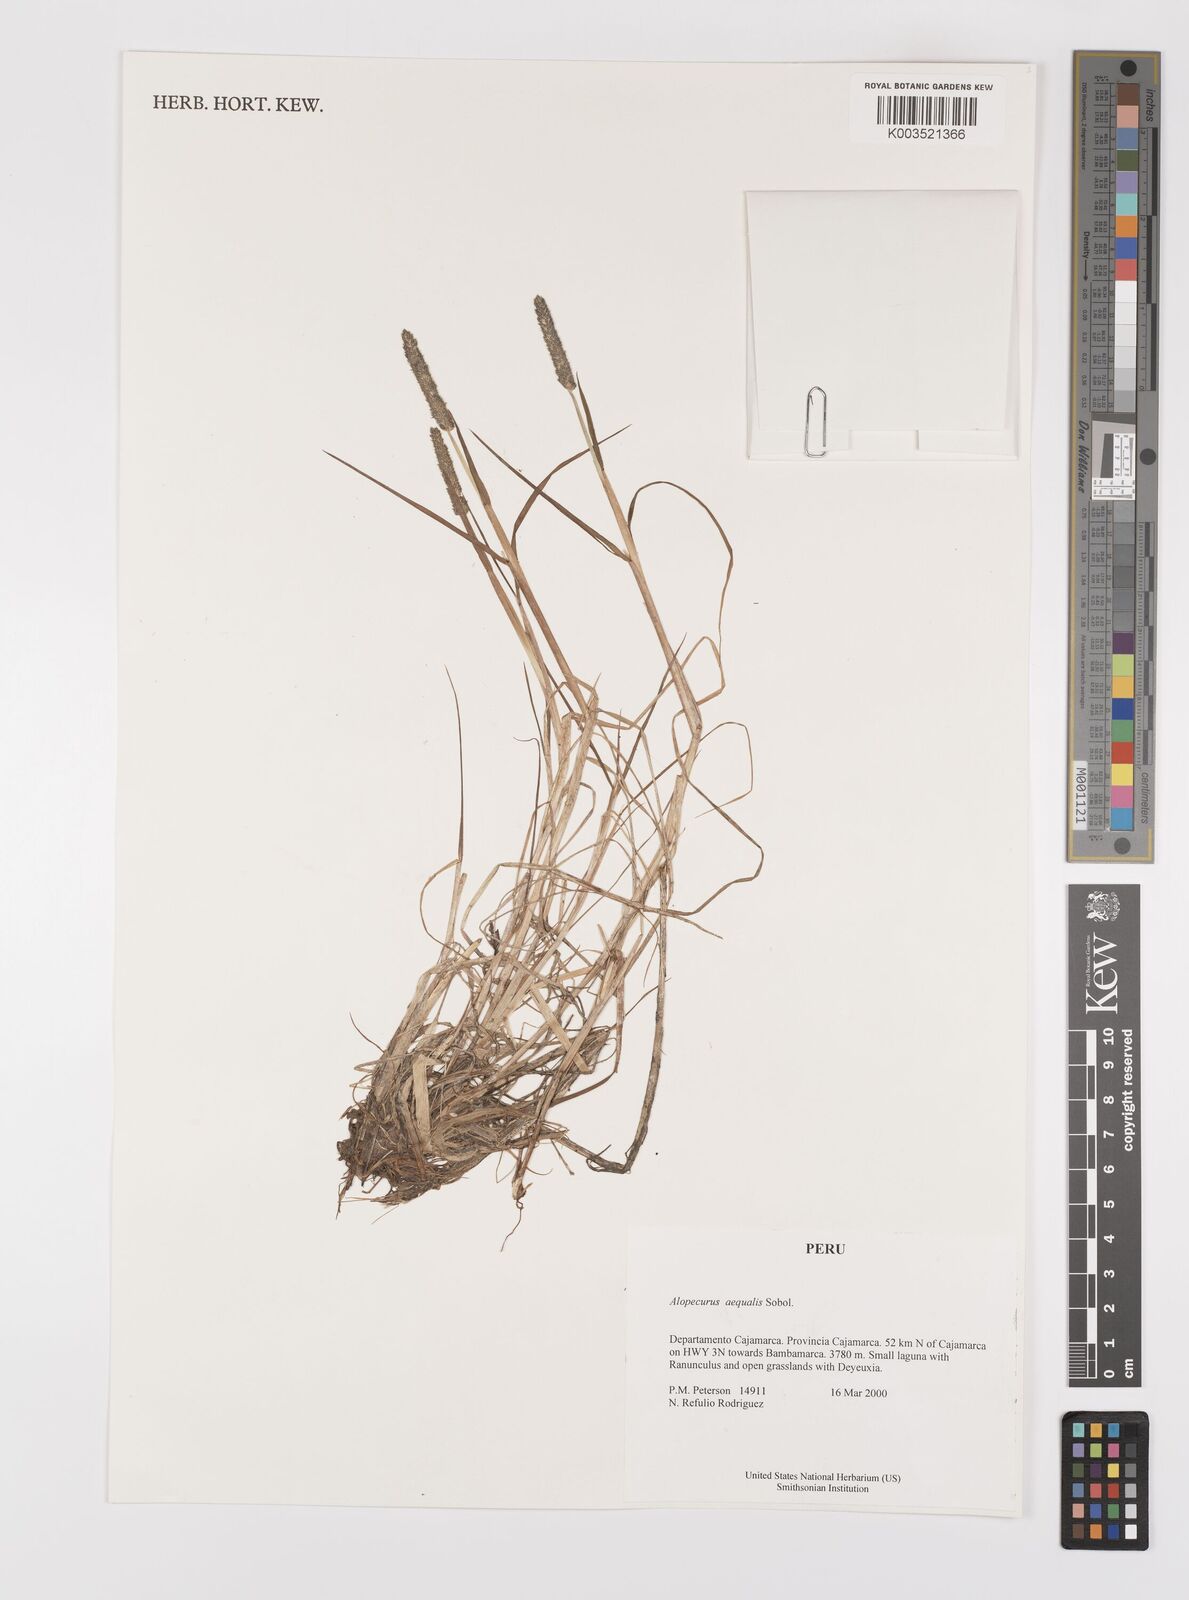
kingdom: Plantae
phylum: Tracheophyta
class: Liliopsida
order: Poales
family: Poaceae
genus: Alopecurus
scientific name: Alopecurus aequalis
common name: Orange foxtail
